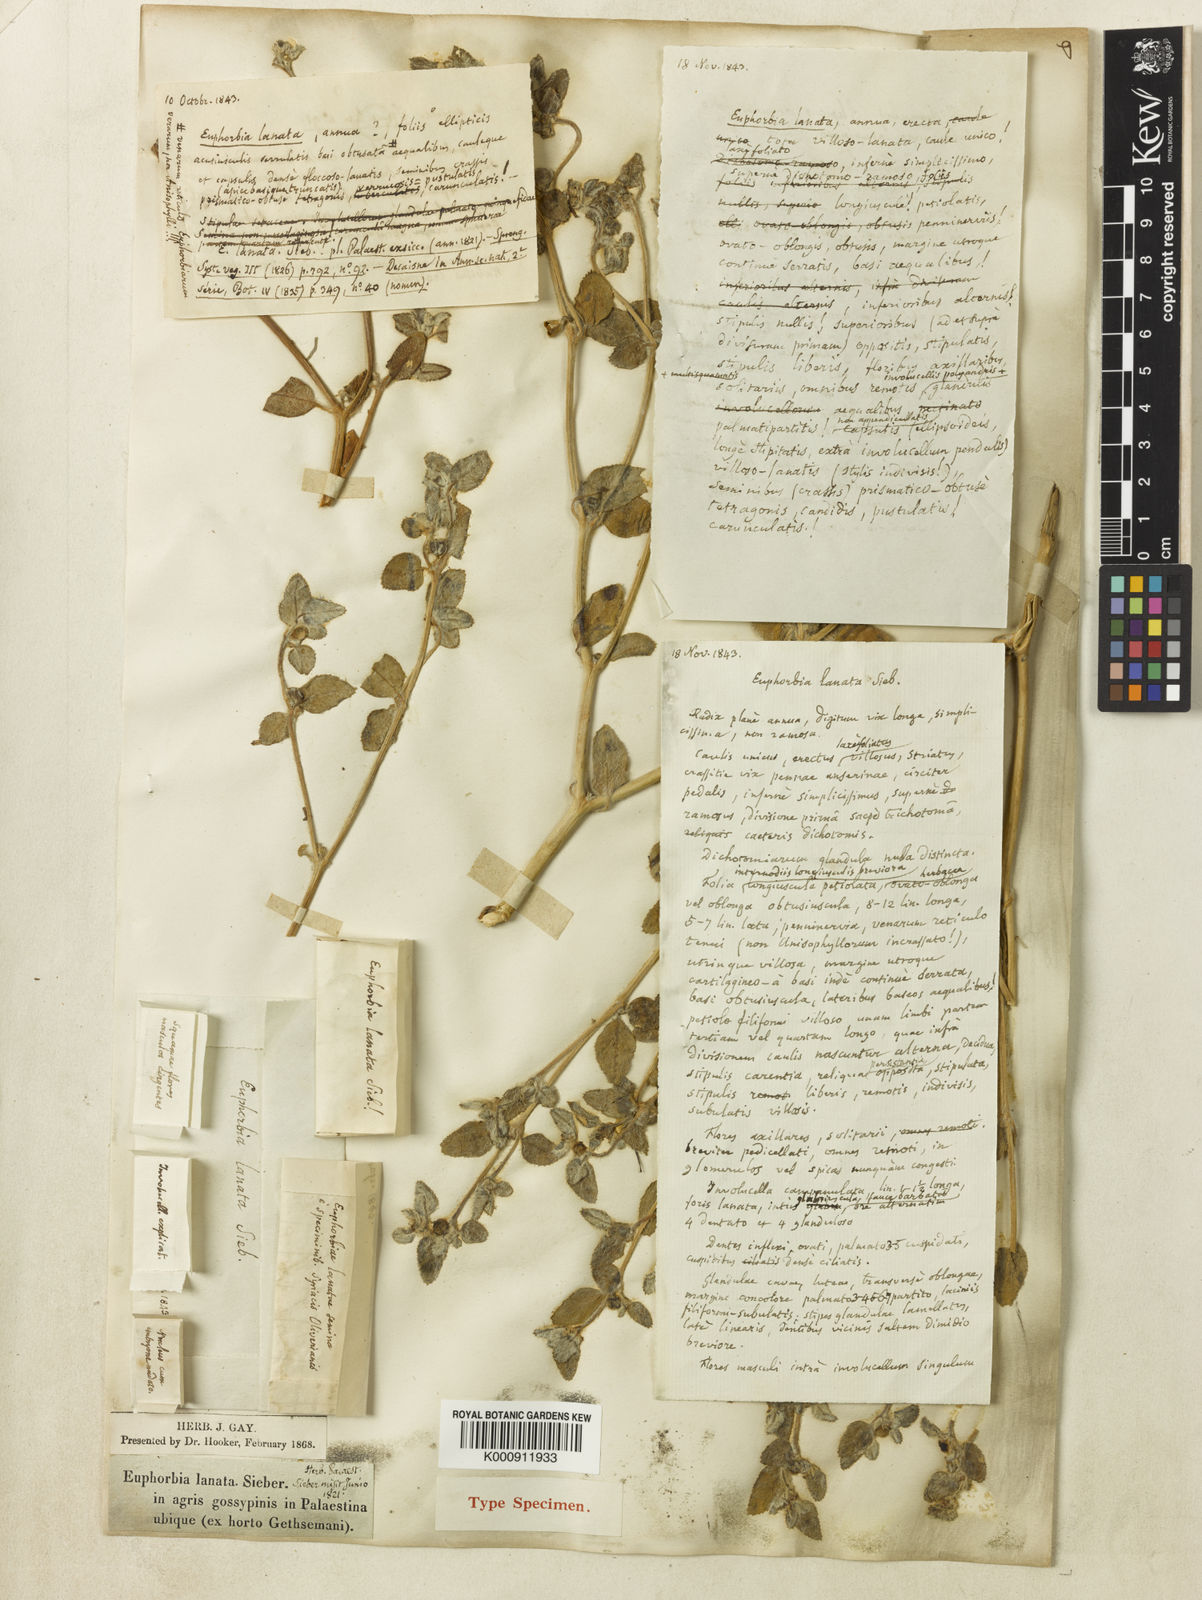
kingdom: Plantae
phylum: Tracheophyta
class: Magnoliopsida
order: Malpighiales
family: Euphorbiaceae
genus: Euphorbia
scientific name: Euphorbia petiolata
